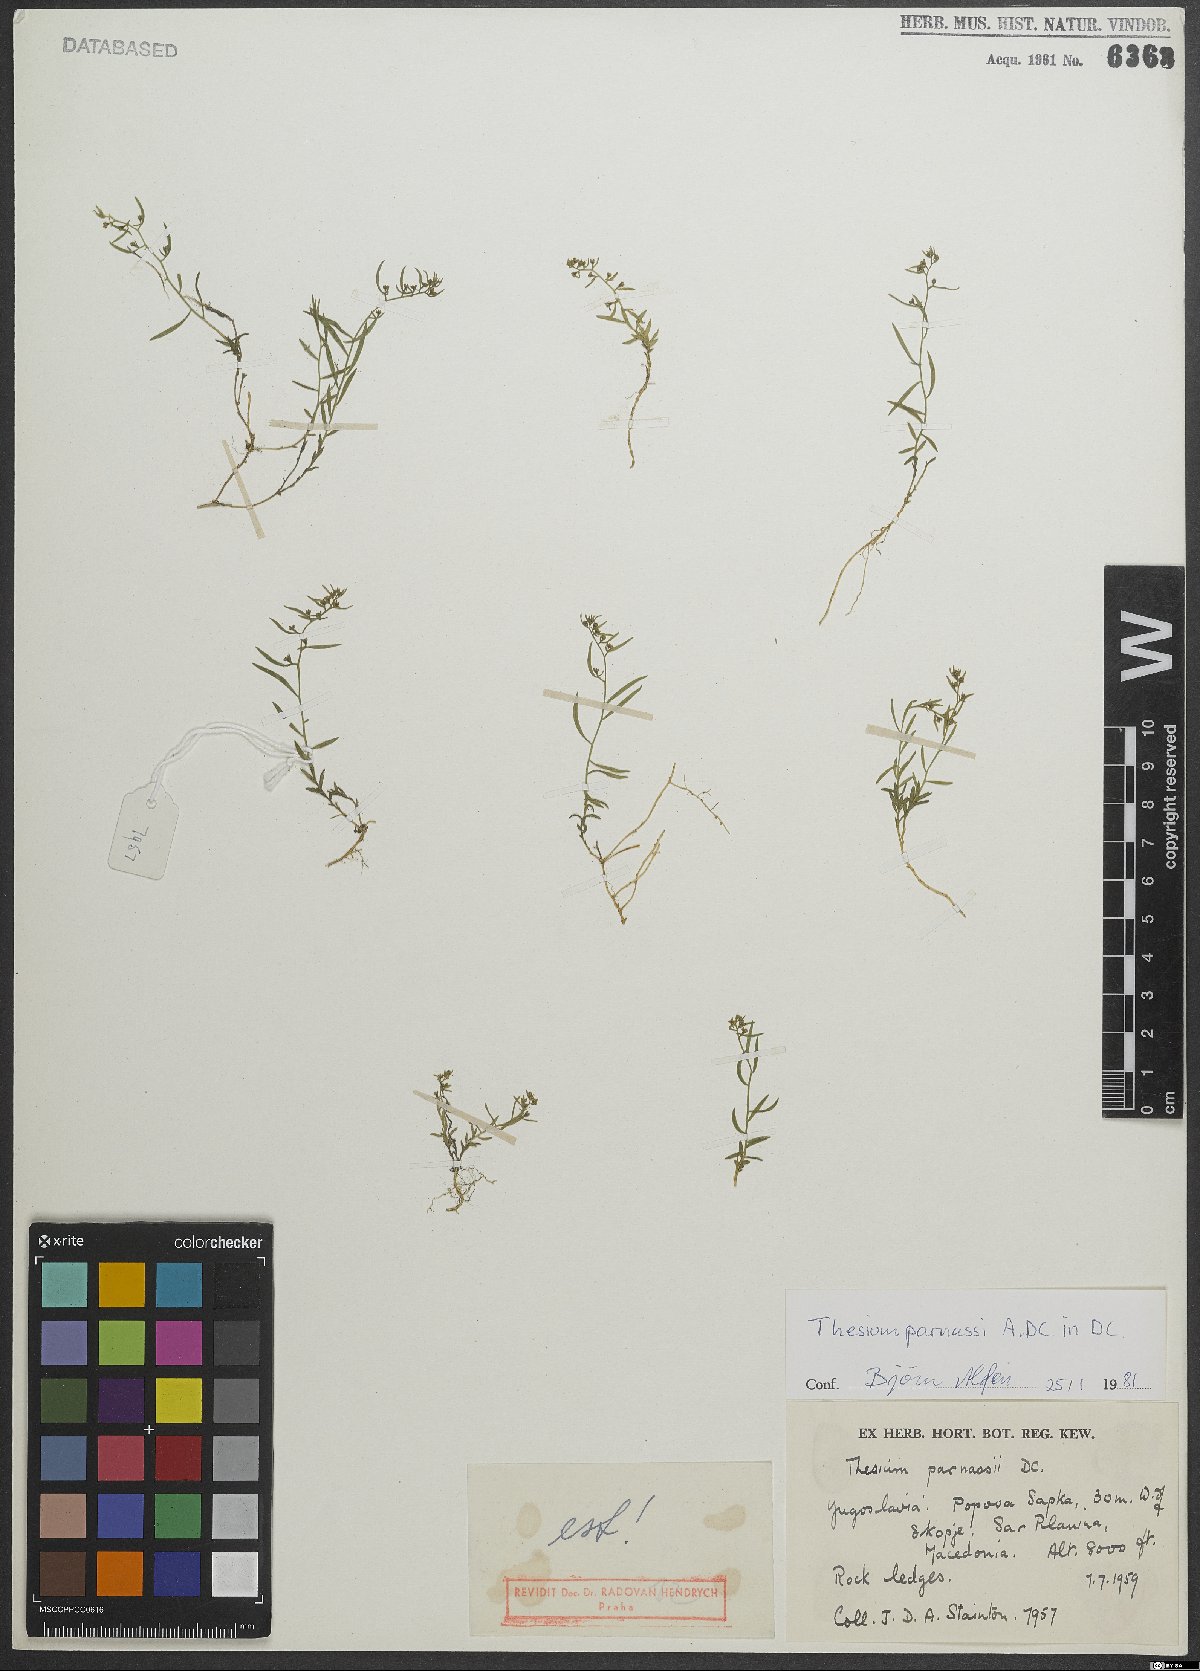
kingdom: Plantae
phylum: Tracheophyta
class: Magnoliopsida
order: Santalales
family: Thesiaceae
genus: Thesium
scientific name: Thesium parnassi
